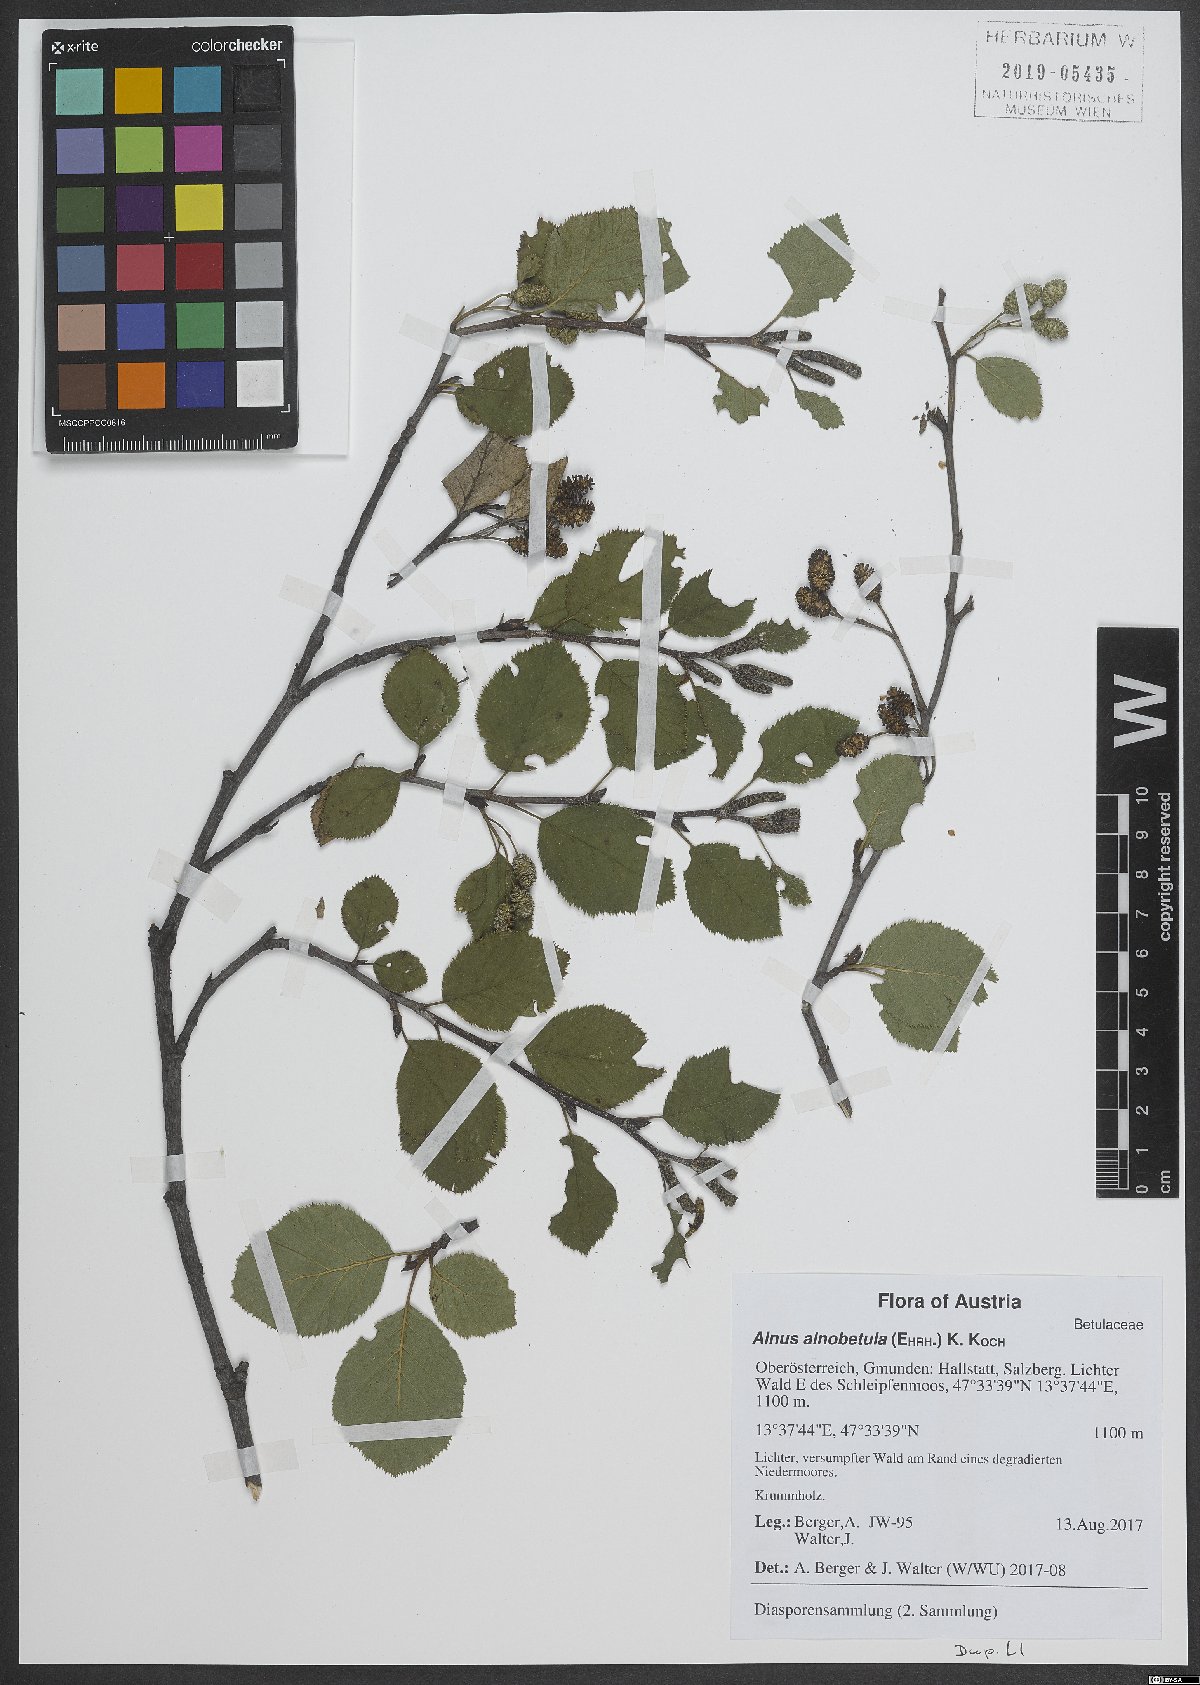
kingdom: Plantae
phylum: Tracheophyta
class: Magnoliopsida
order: Fagales
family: Betulaceae
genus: Alnus
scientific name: Alnus alnobetula
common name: Green alder
